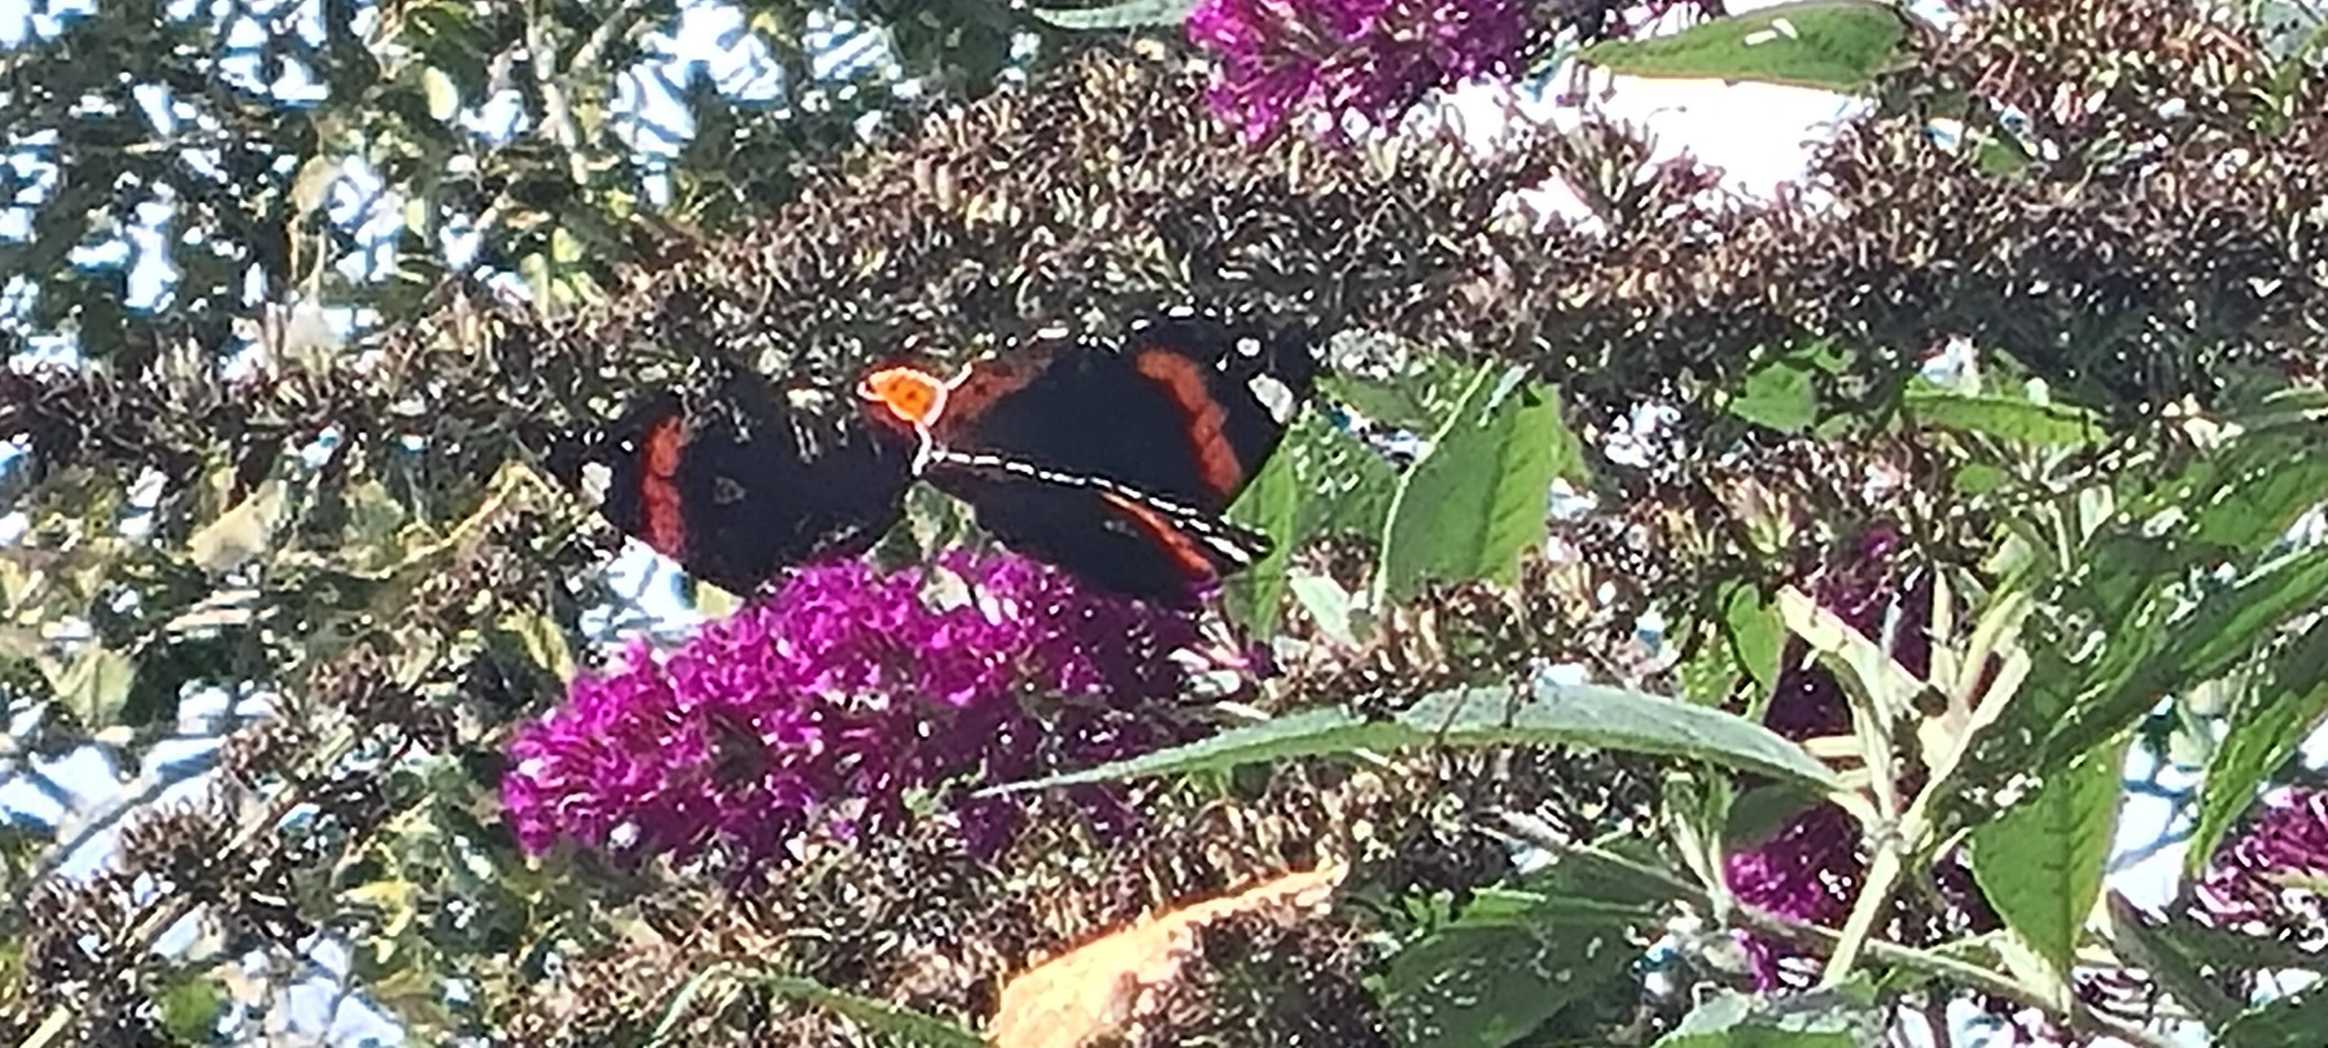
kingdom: Animalia
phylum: Arthropoda
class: Insecta
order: Lepidoptera
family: Nymphalidae
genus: Vanessa
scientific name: Vanessa atalanta
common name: Admiral
